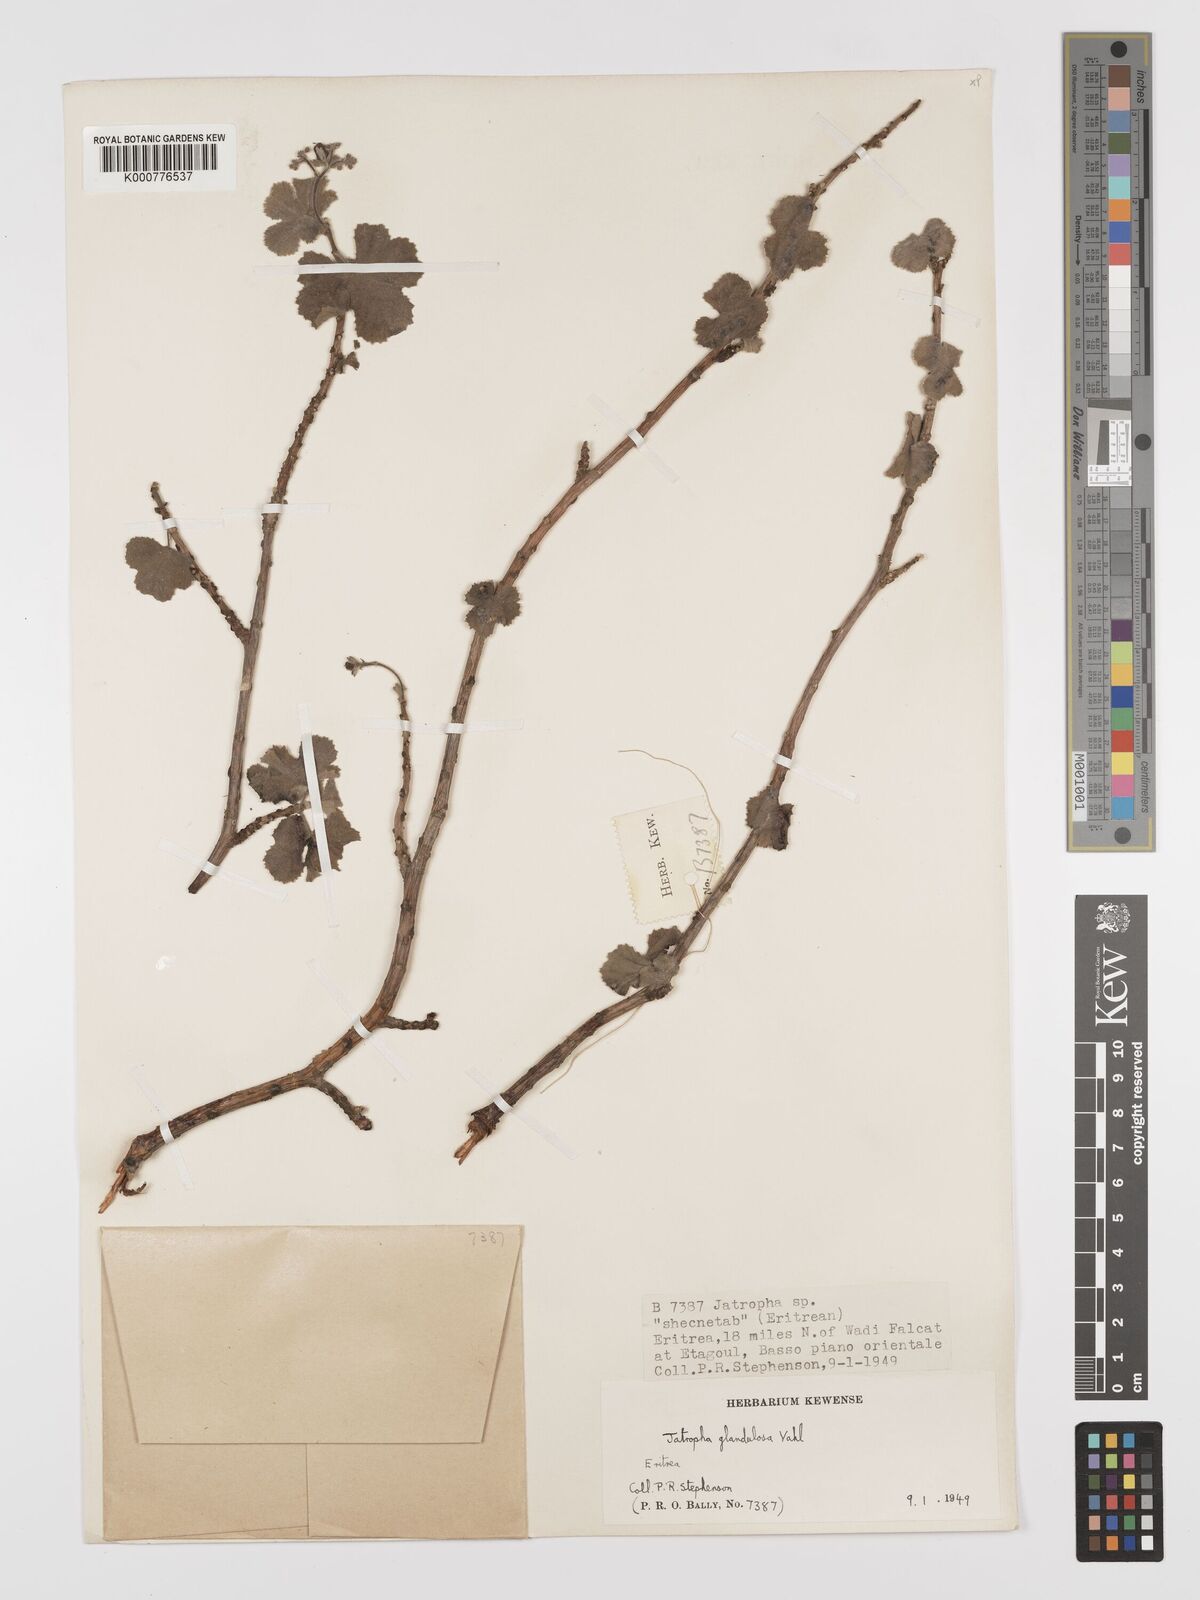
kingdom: Plantae
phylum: Tracheophyta
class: Magnoliopsida
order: Malpighiales
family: Euphorbiaceae
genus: Jatropha
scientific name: Jatropha pelargoniifolia
